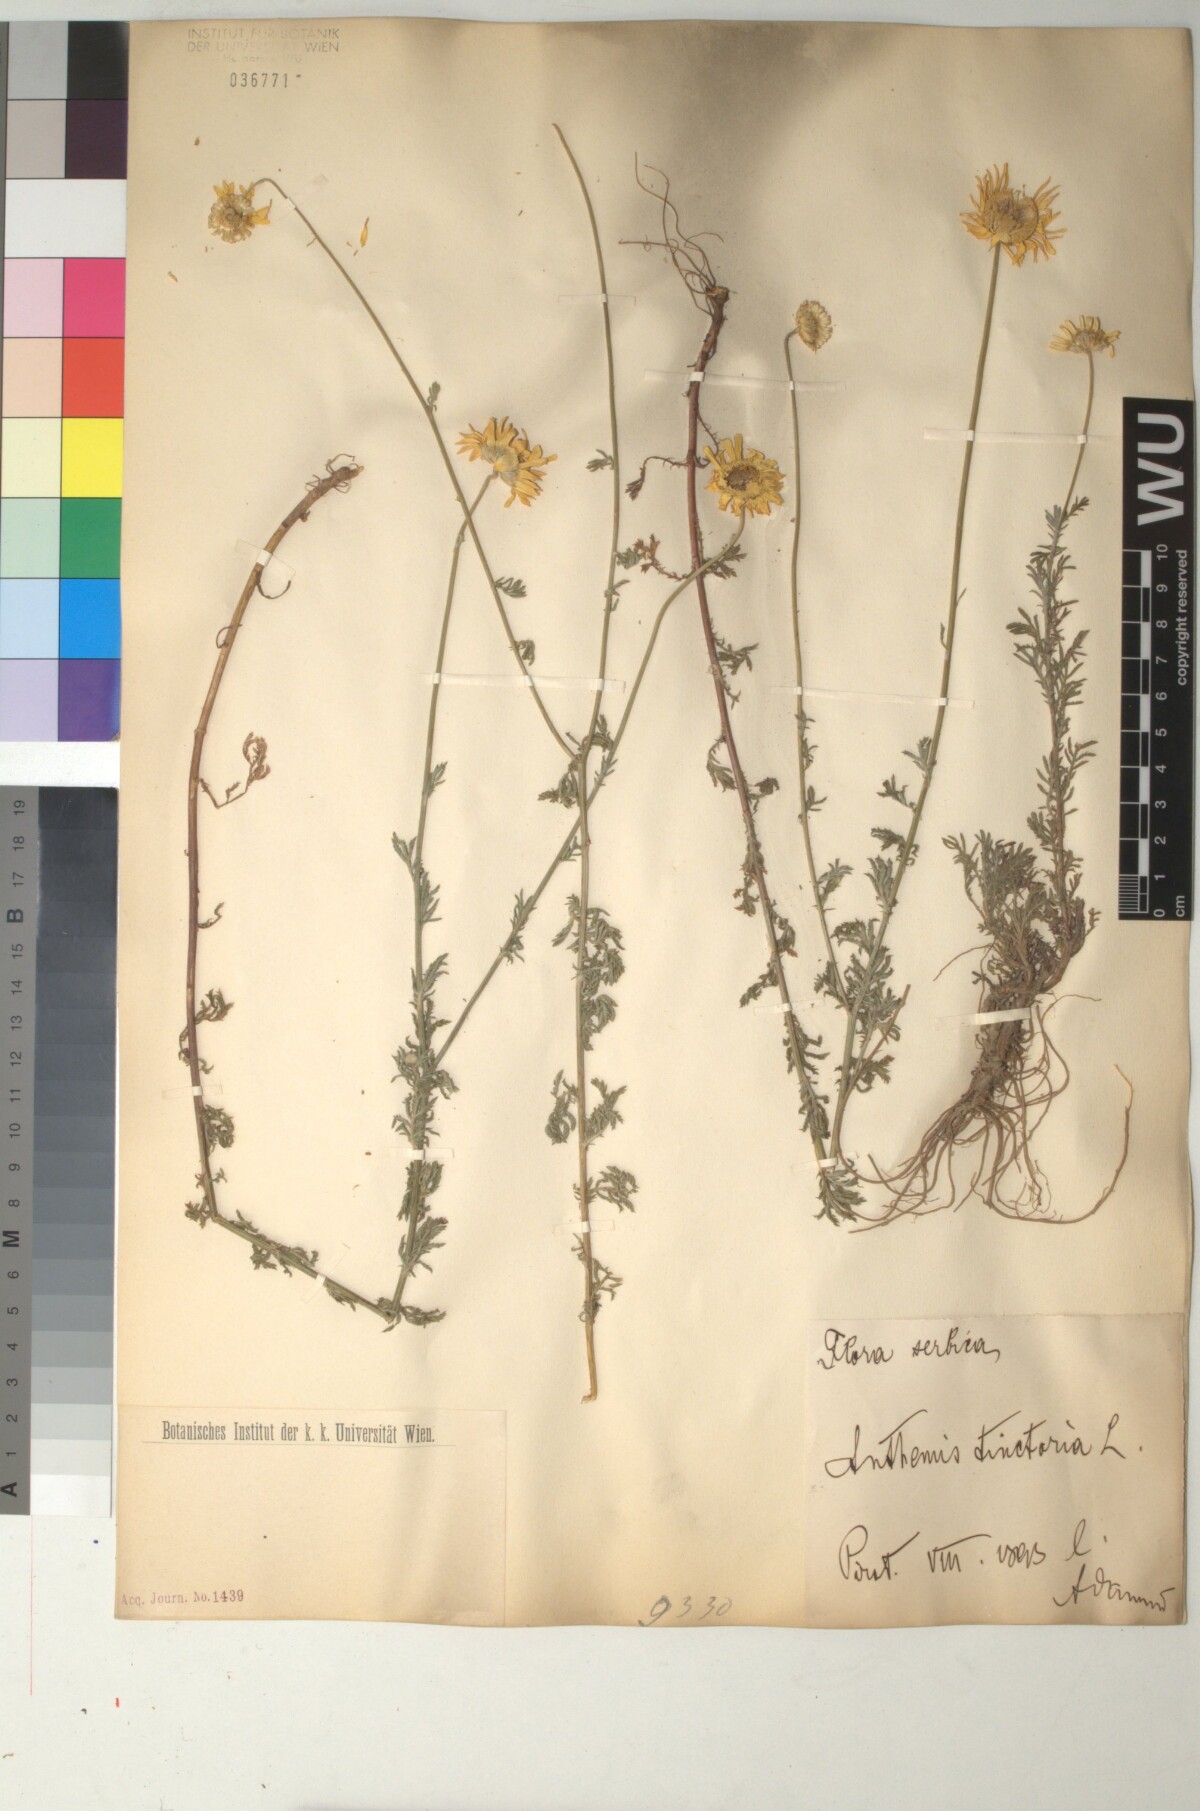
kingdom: Plantae
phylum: Tracheophyta
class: Magnoliopsida
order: Asterales
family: Asteraceae
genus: Cota
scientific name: Cota tinctoria
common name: Golden chamomile
